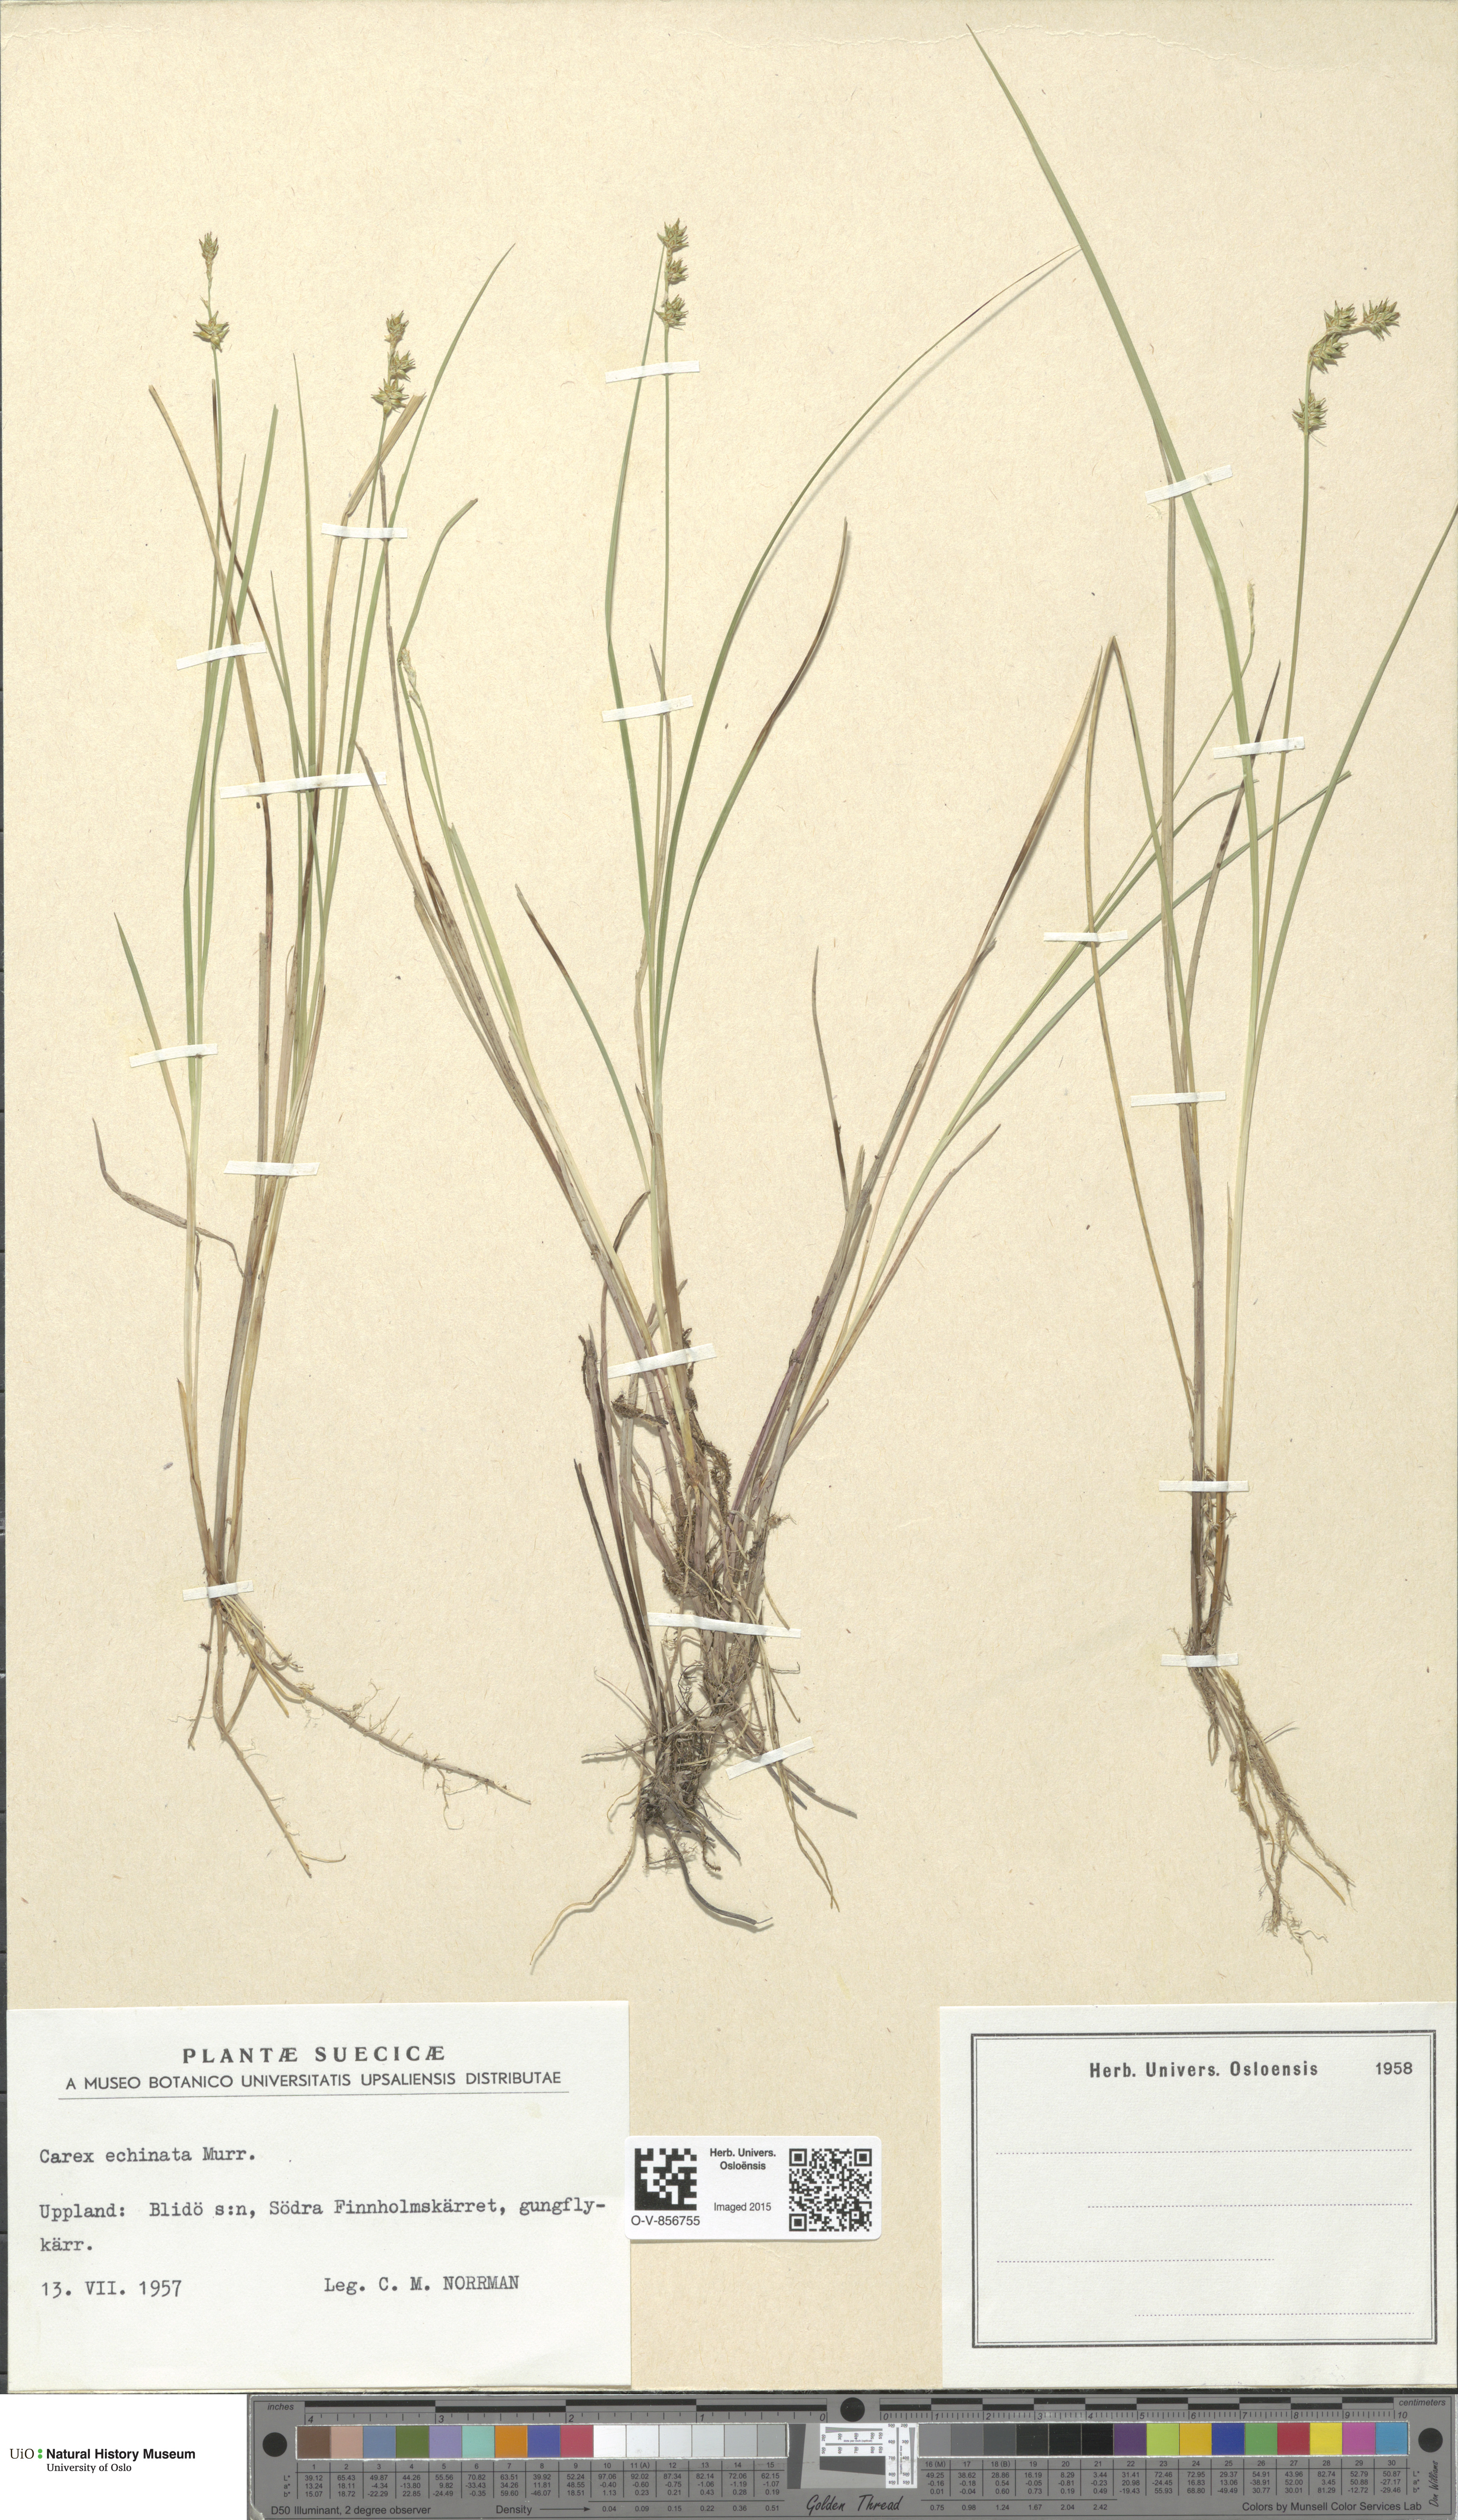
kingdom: Plantae
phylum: Tracheophyta
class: Liliopsida
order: Poales
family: Cyperaceae
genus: Carex
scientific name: Carex echinata
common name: Star sedge
